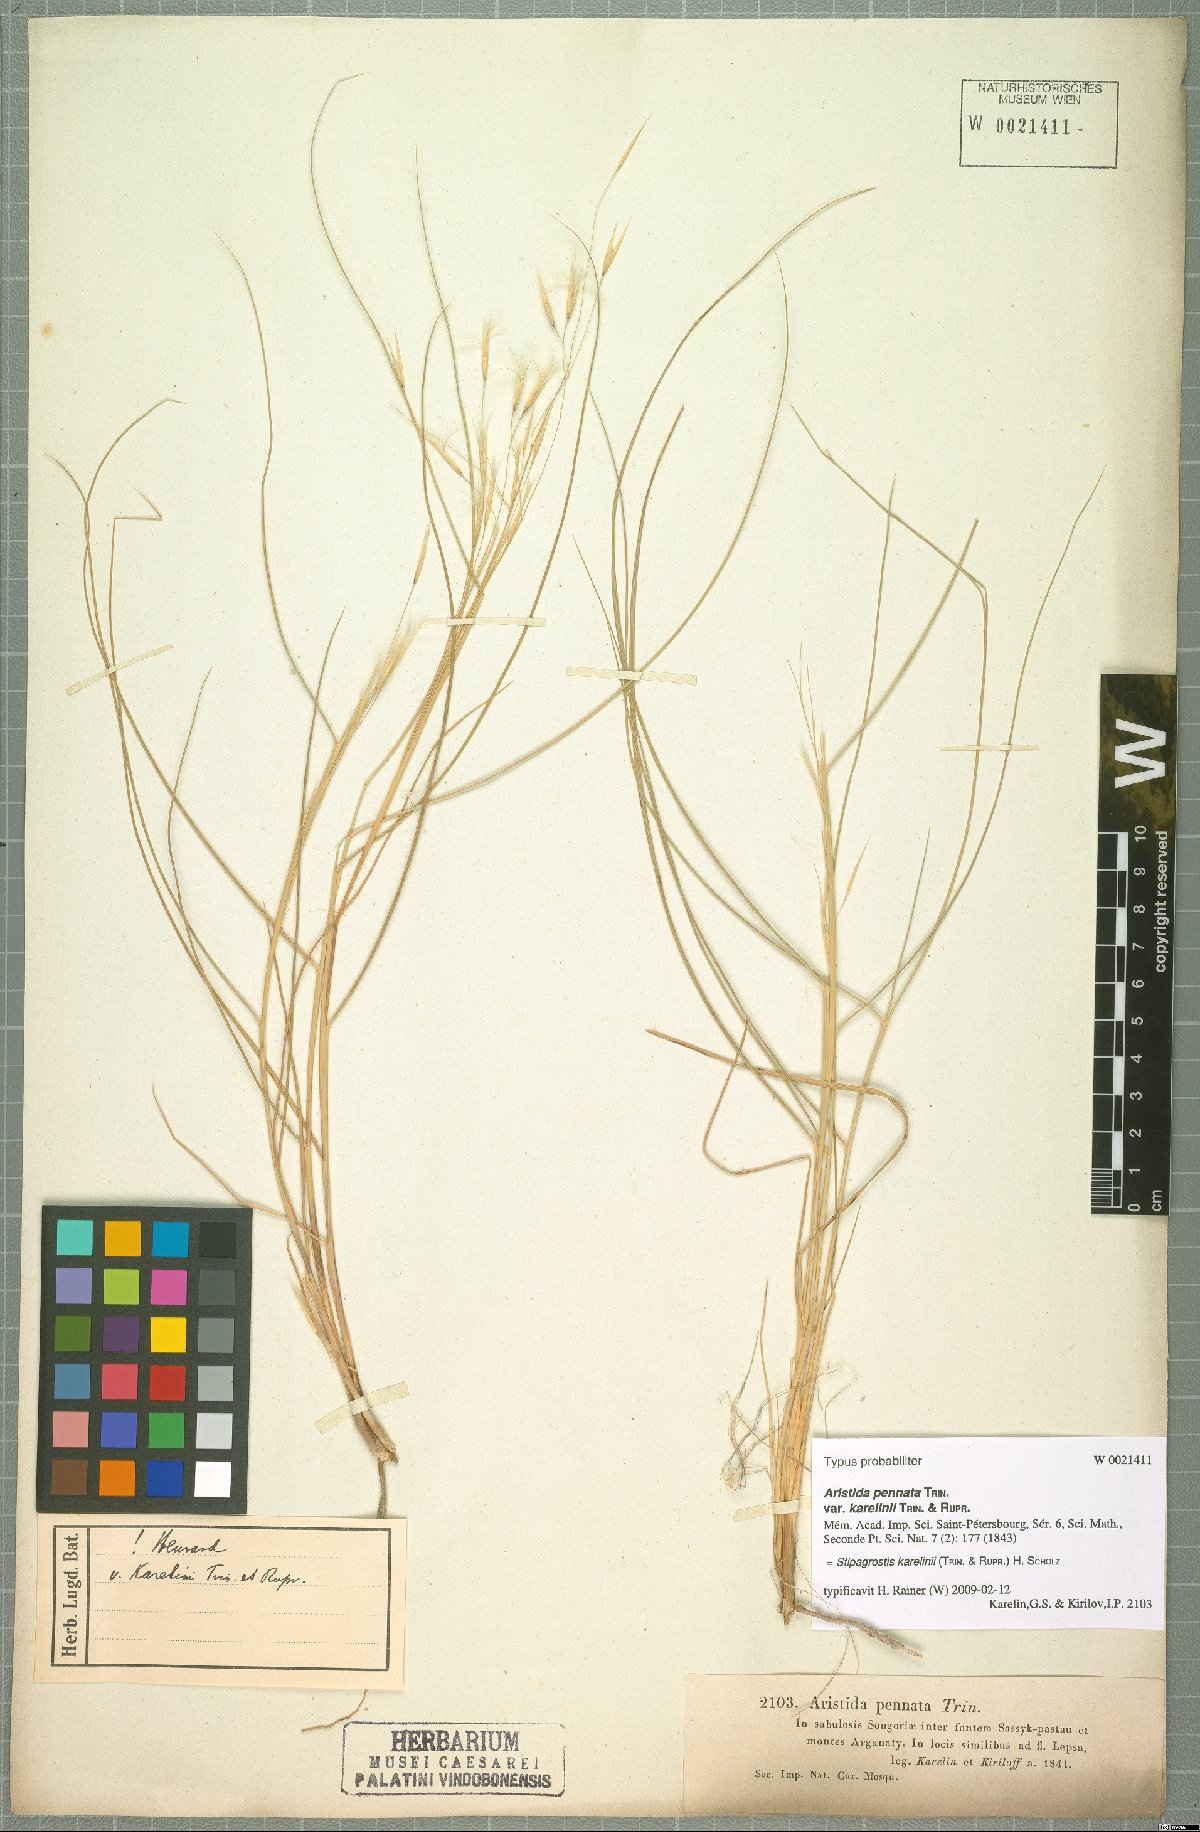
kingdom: Plantae
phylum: Tracheophyta
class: Liliopsida
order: Poales
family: Poaceae
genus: Stipagrostis
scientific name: Stipagrostis karelinii
